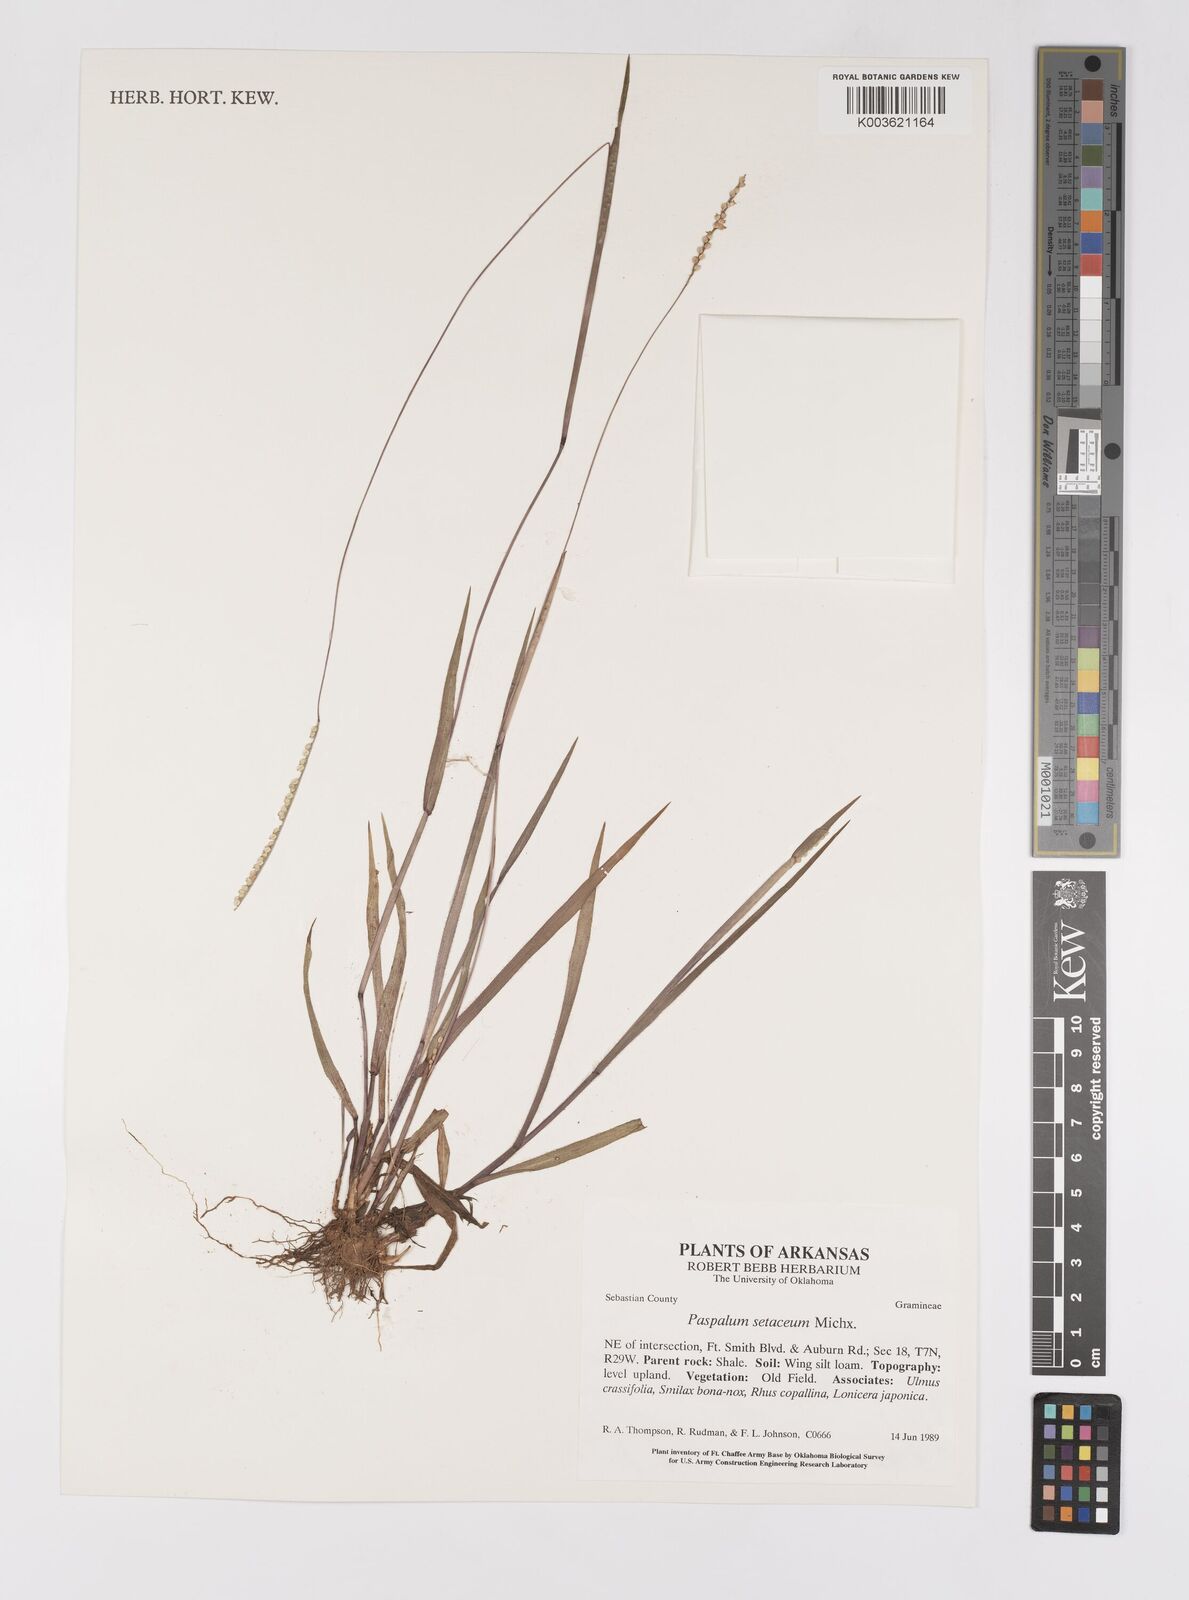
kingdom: Plantae
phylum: Tracheophyta
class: Liliopsida
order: Poales
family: Poaceae
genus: Paspalum
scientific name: Paspalum setaceum
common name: Slender paspalum
